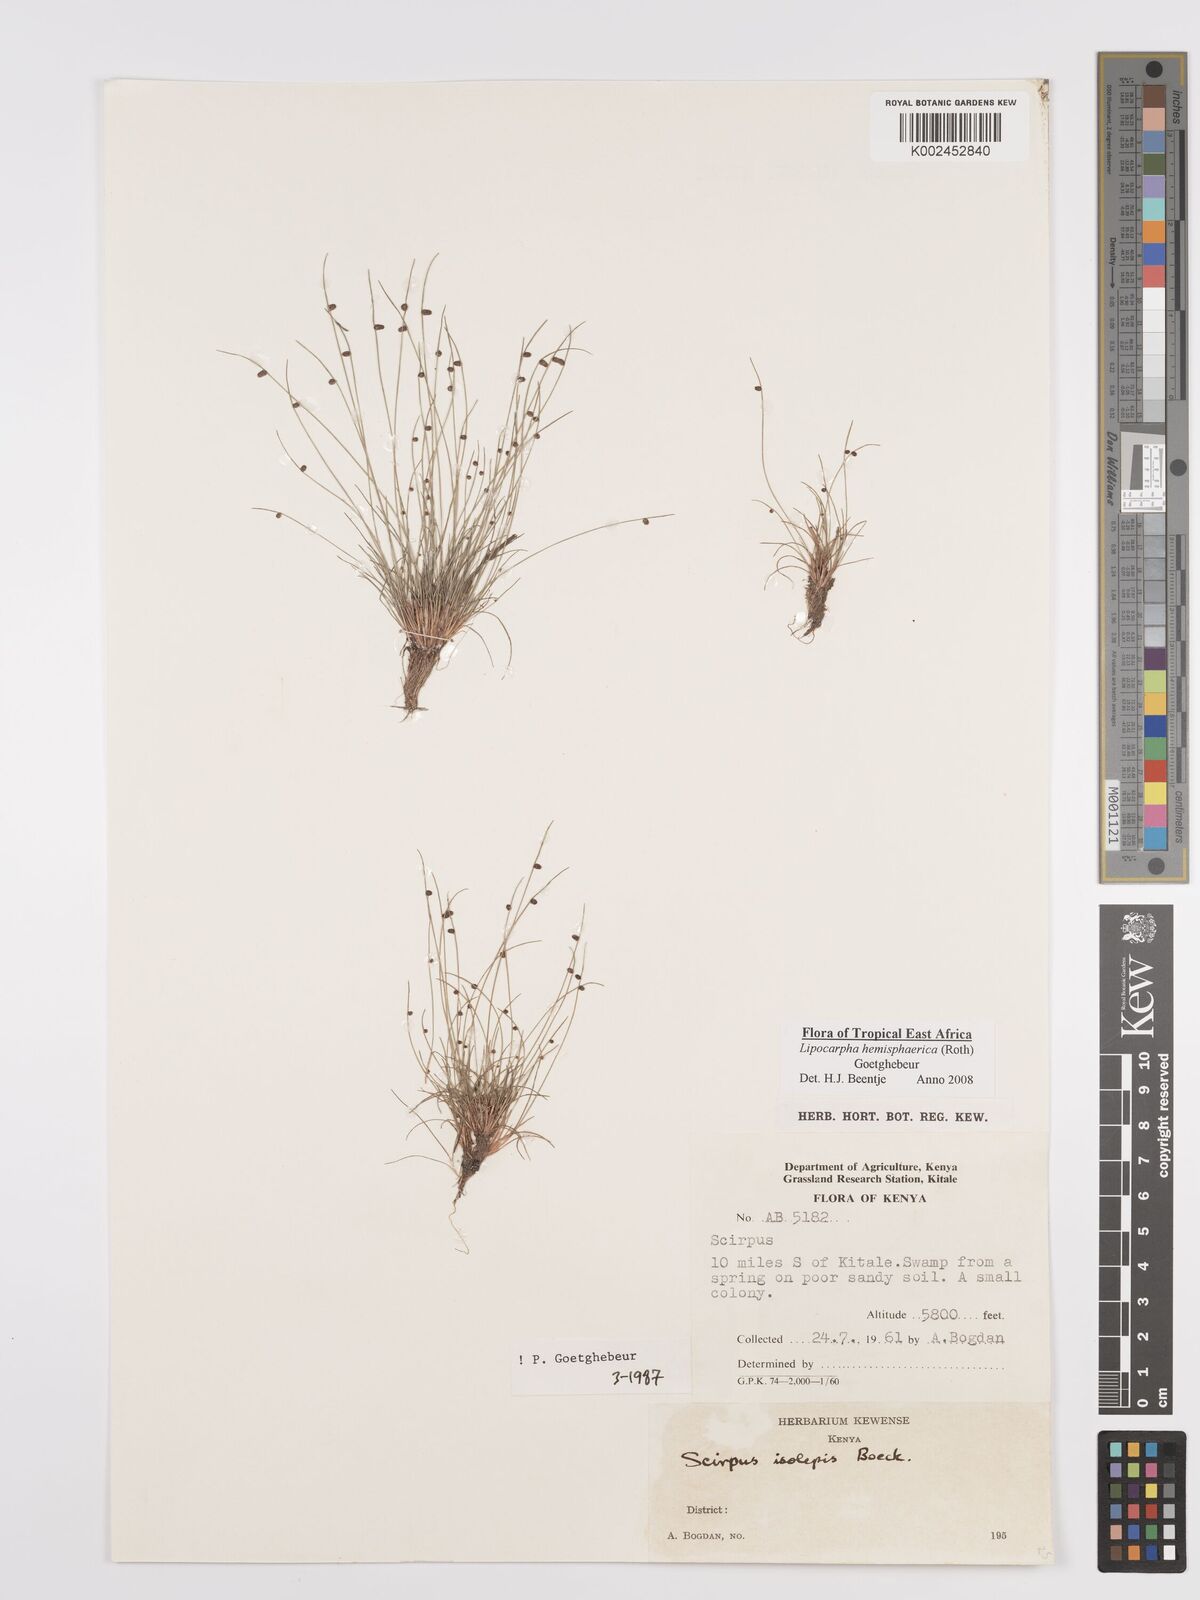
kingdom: Plantae
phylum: Tracheophyta
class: Liliopsida
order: Poales
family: Cyperaceae
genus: Cyperus
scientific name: Cyperus
